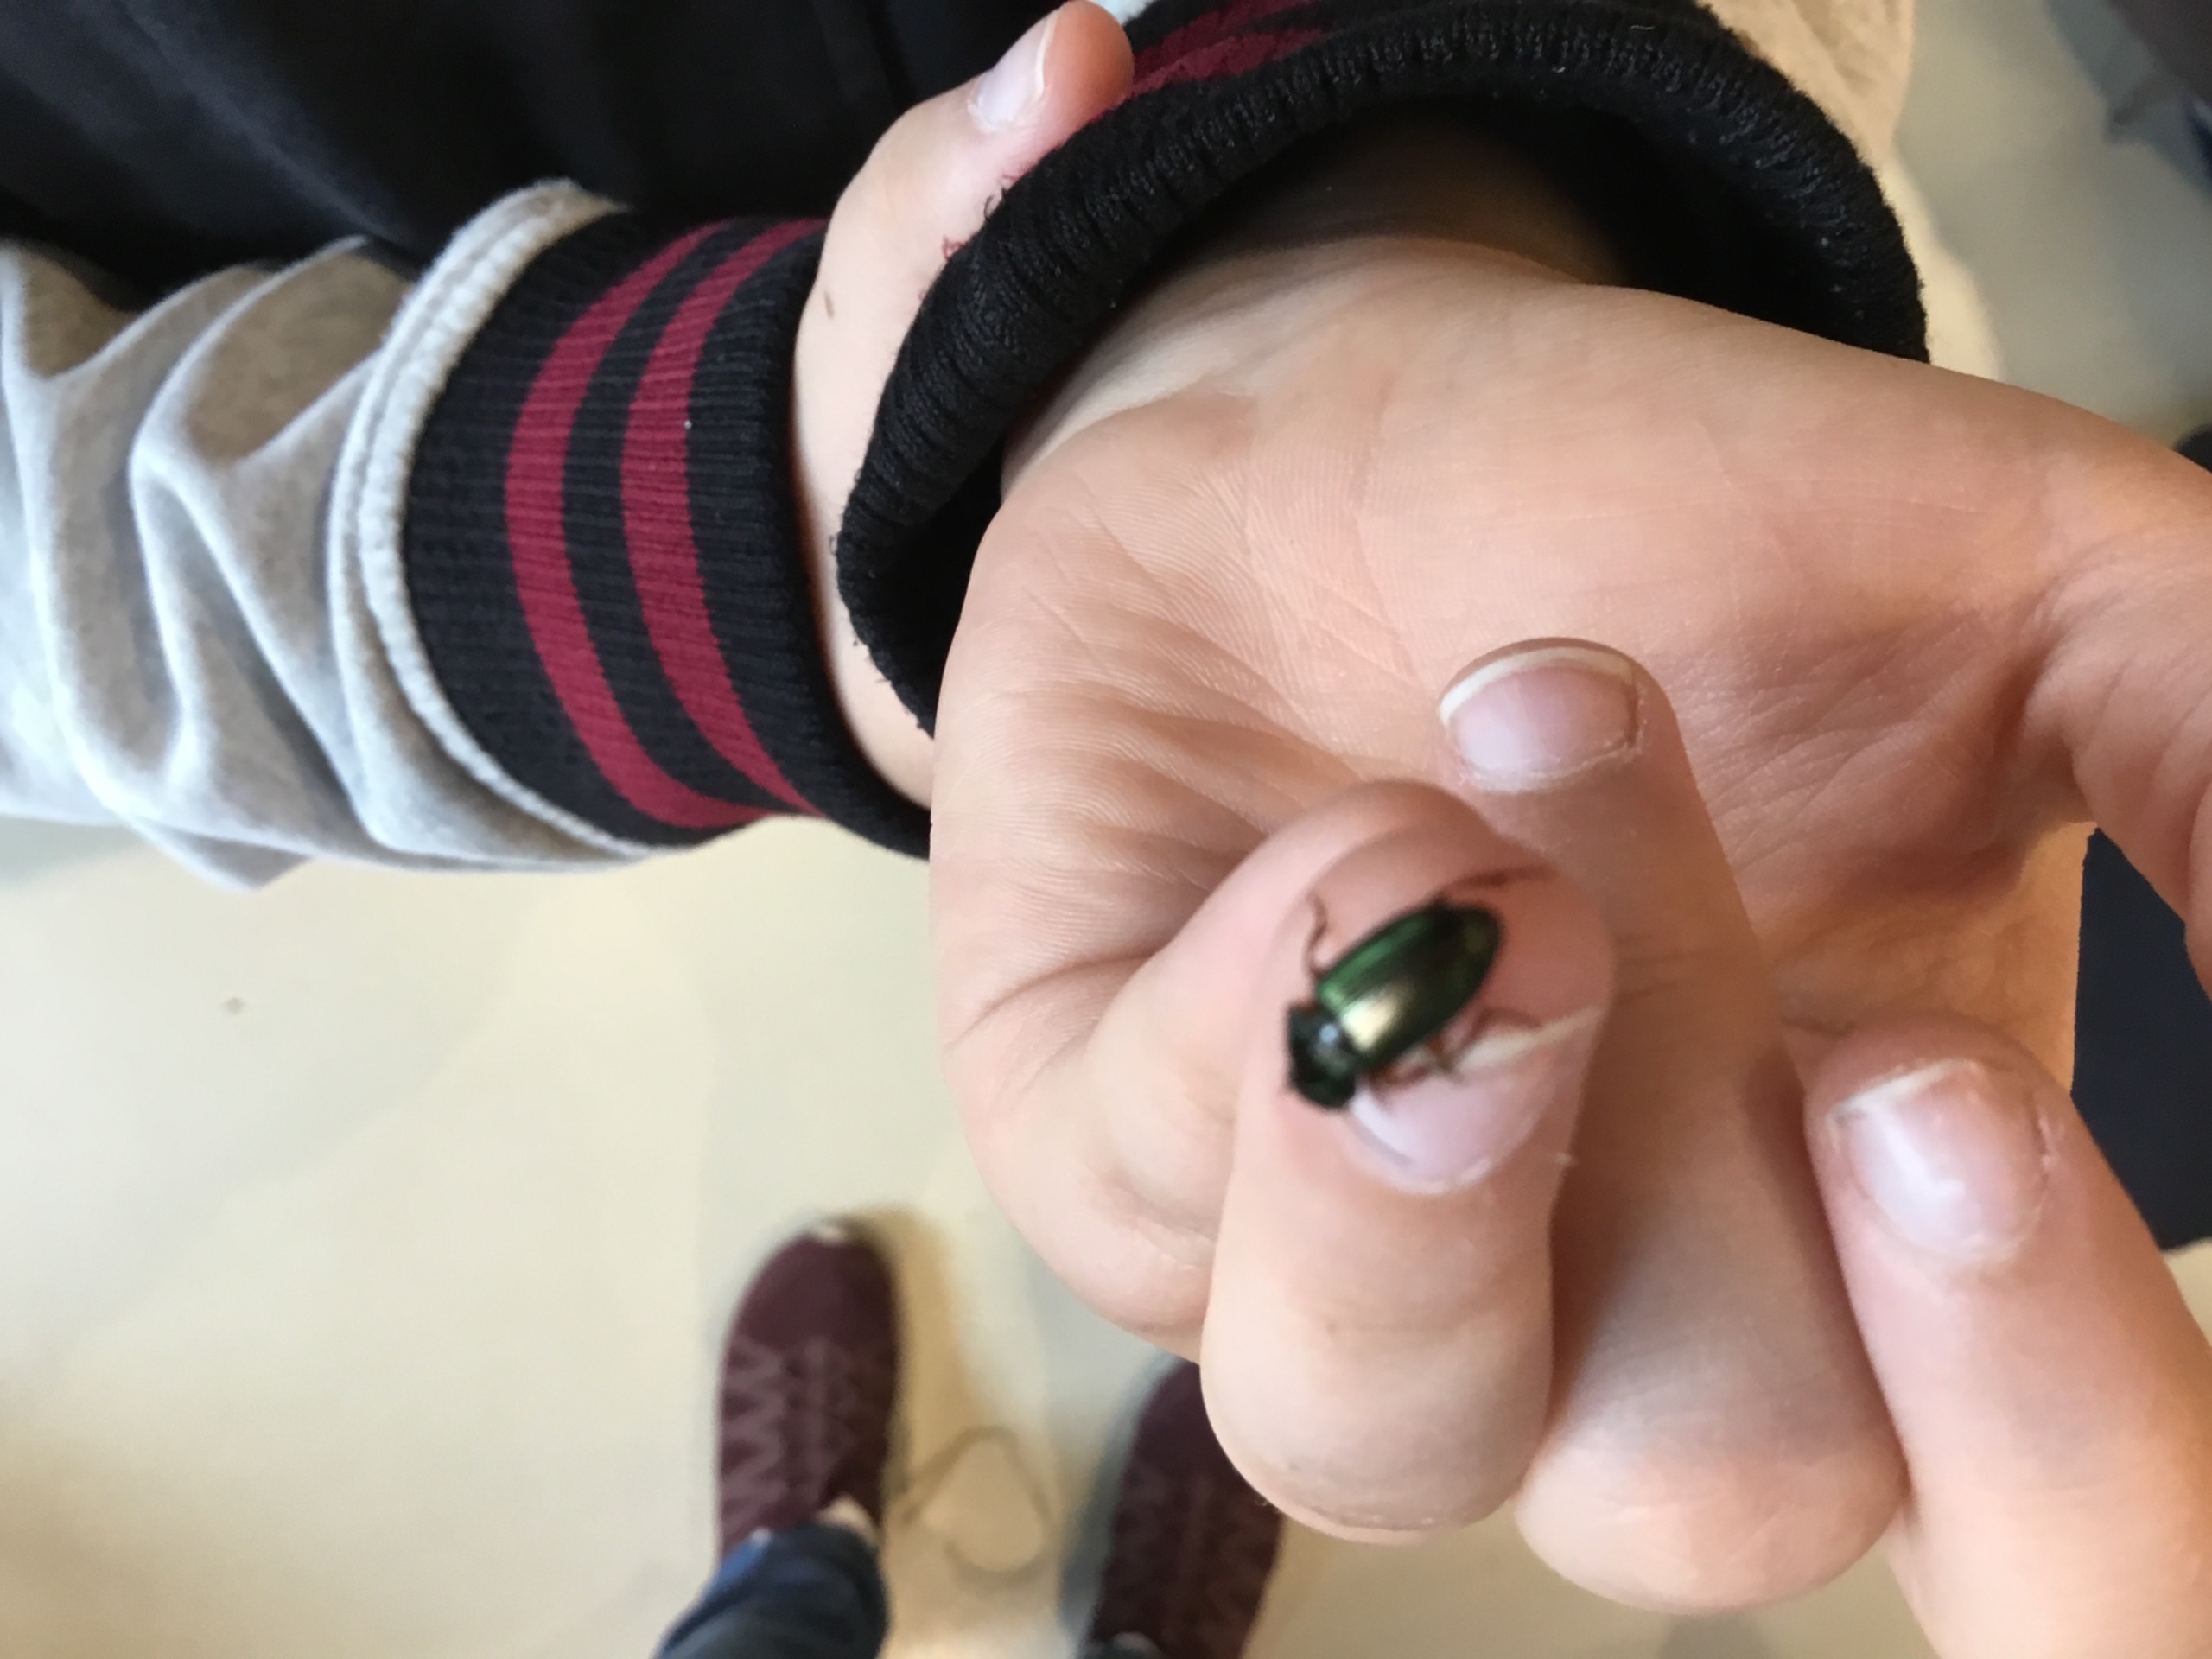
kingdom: Animalia
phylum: Arthropoda
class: Insecta
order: Coleoptera
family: Carabidae
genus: Agonum
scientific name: Agonum muelleri
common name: Fintstribet kvikløber
